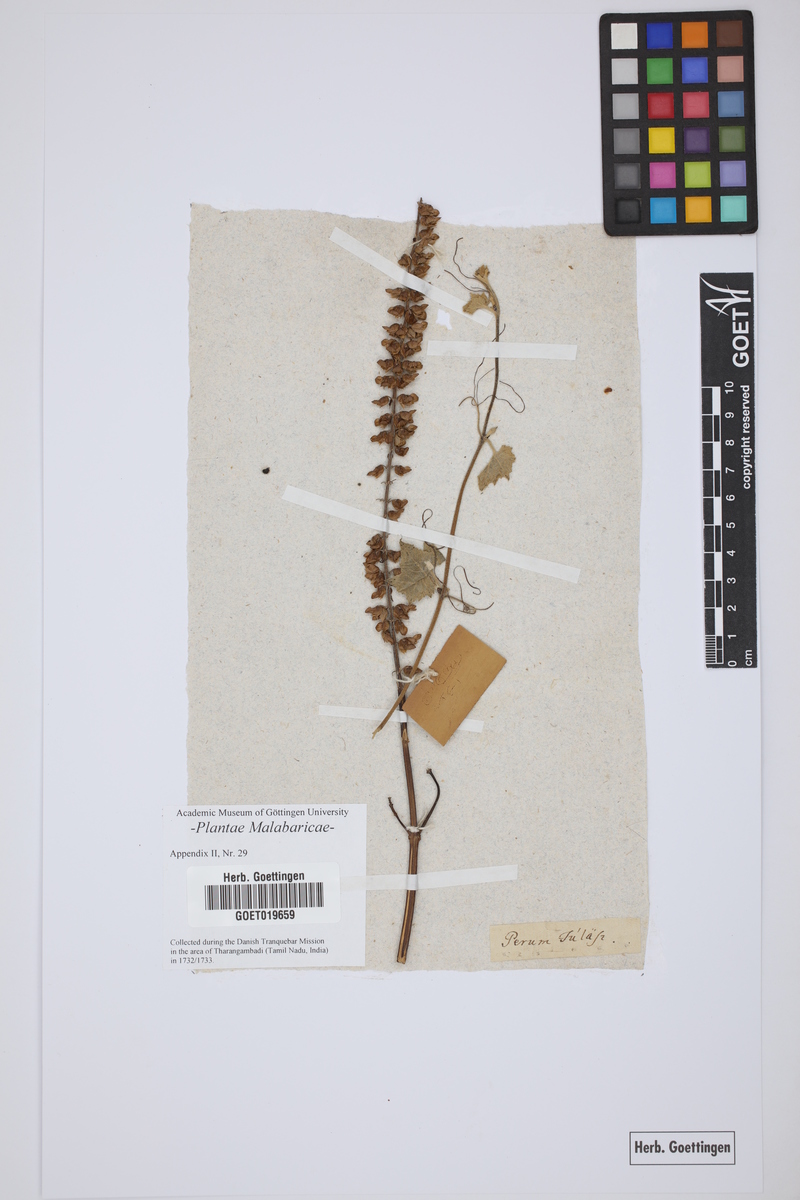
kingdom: Plantae
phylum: Tracheophyta
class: Magnoliopsida
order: Lamiales
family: Lamiaceae
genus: Equilabium
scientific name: Equilabium molle
